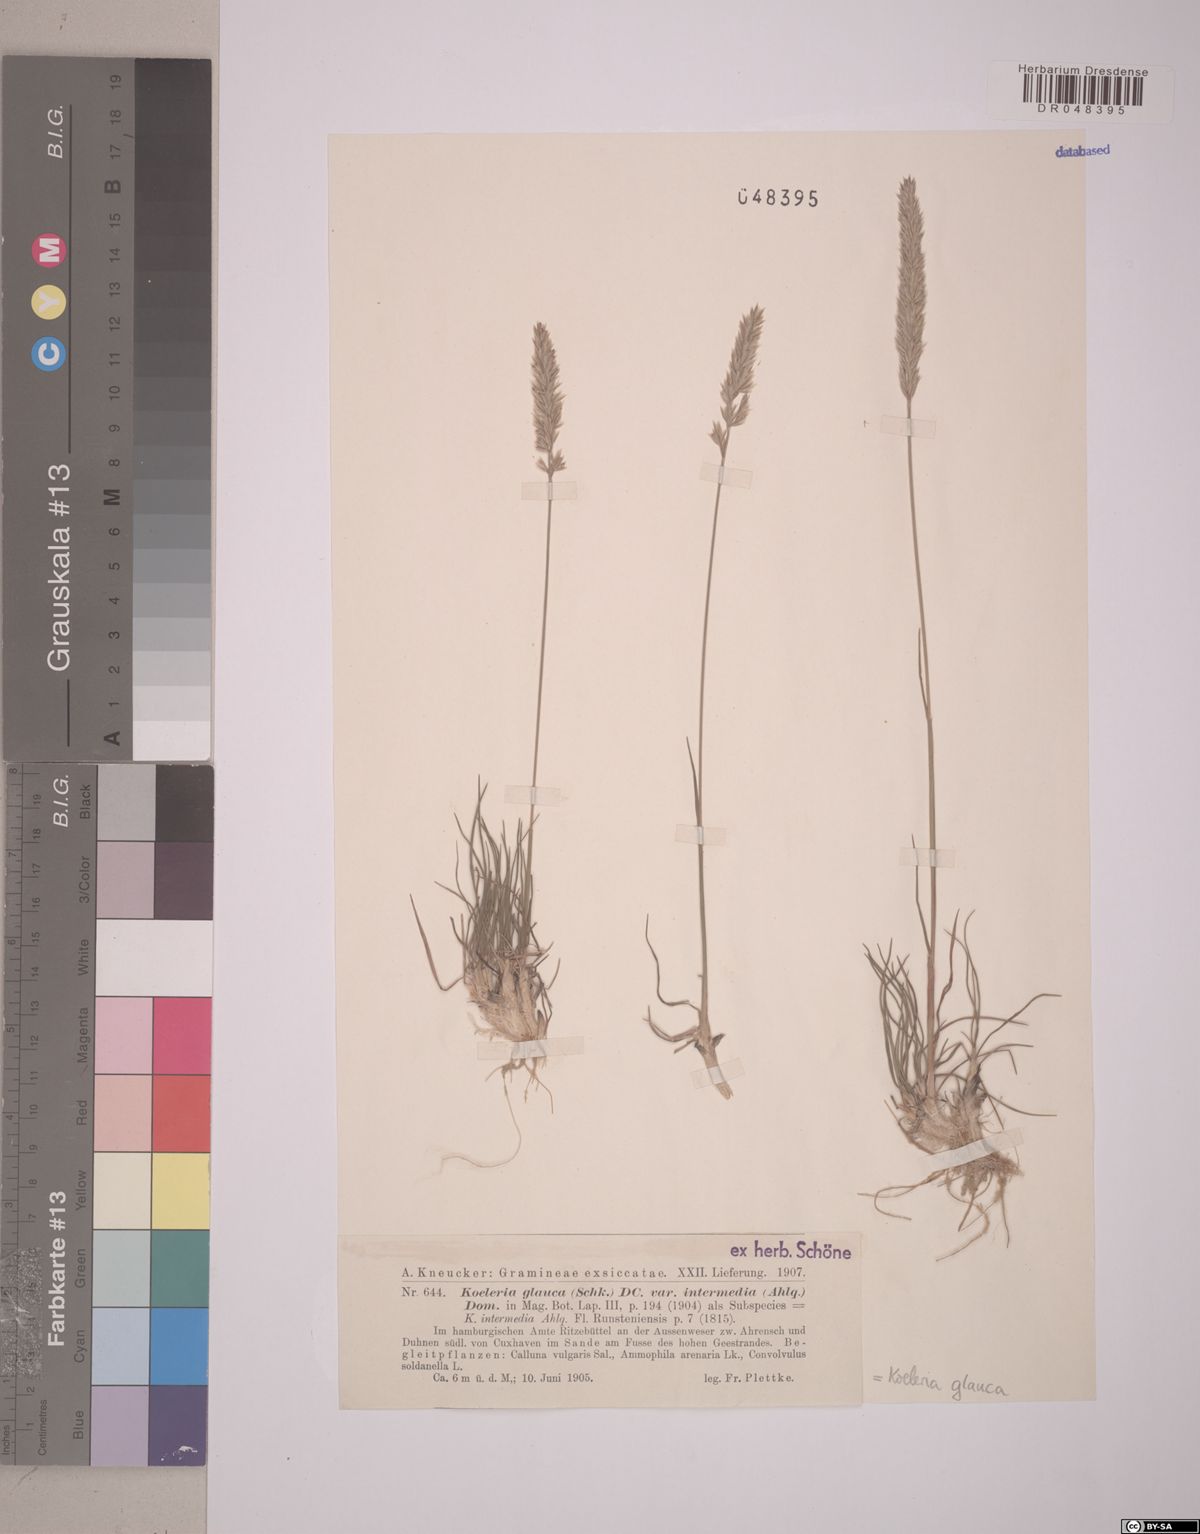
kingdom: Plantae
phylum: Tracheophyta
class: Liliopsida
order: Poales
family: Poaceae
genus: Koeleria
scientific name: Koeleria glauca
